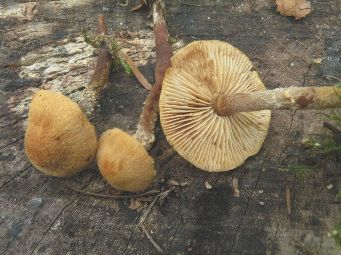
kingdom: Fungi
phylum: Basidiomycota
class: Agaricomycetes
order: Agaricales
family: Tricholomataceae
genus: Cystoderma
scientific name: Cystoderma jasonis
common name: gulkødet grynhat
